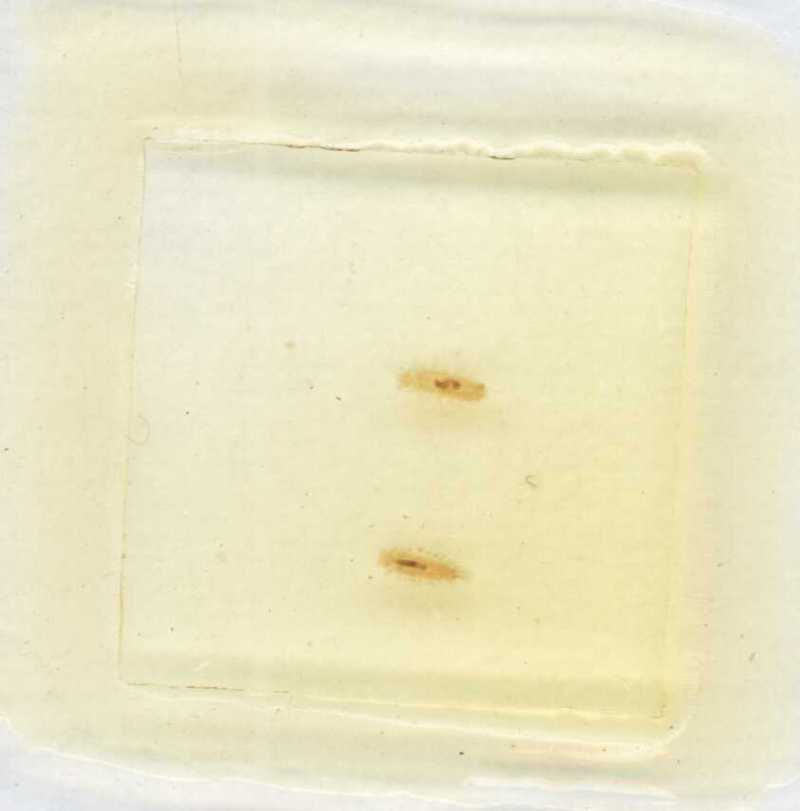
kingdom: Animalia
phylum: Arthropoda
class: Diplopoda
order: Polyxenida
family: Polyxenidae
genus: Polyxenus
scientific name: Polyxenus lapidicola
